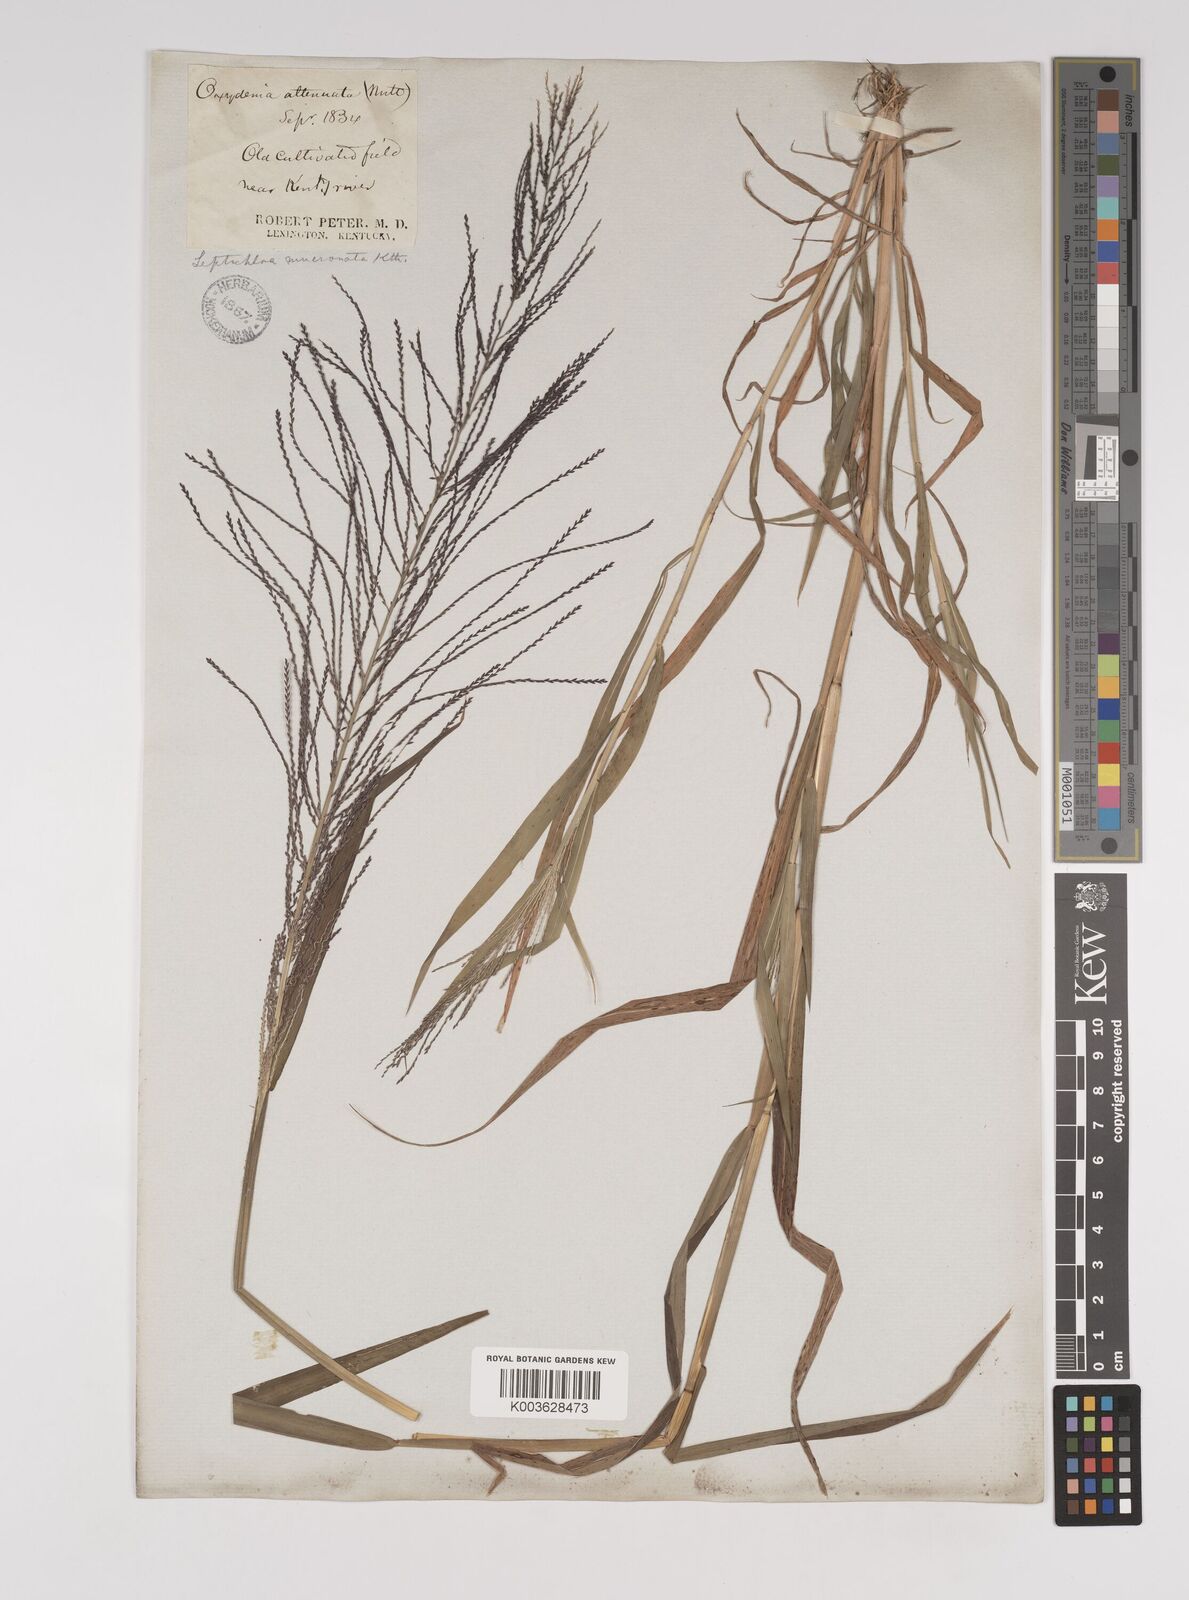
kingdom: Plantae
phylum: Tracheophyta
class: Liliopsida
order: Poales
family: Poaceae
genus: Leptochloa
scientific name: Leptochloa panicea
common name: Mucronate sprangletop
